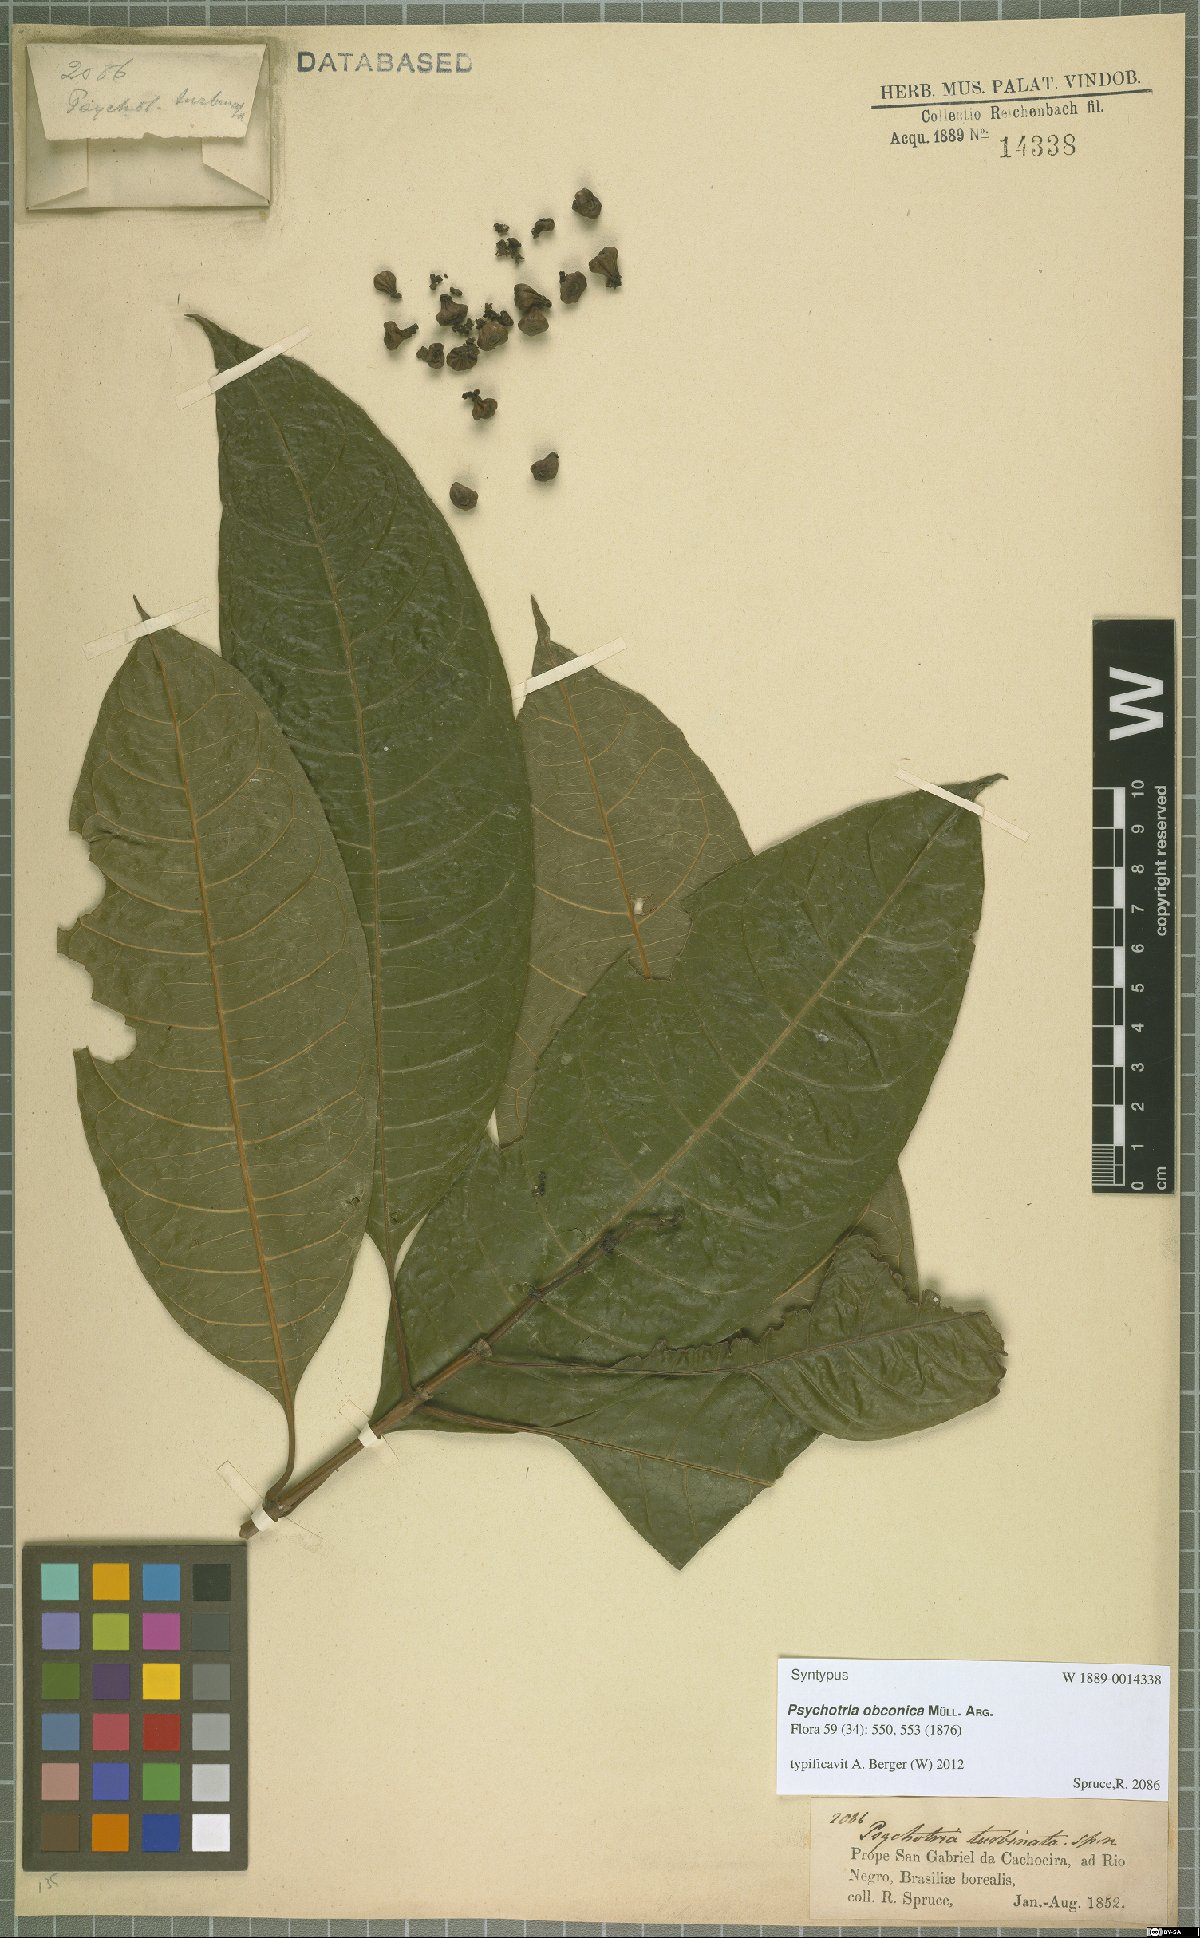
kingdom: Plantae
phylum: Tracheophyta
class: Magnoliopsida
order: Gentianales
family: Rubiaceae
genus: Palicourea
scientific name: Palicourea obconica
